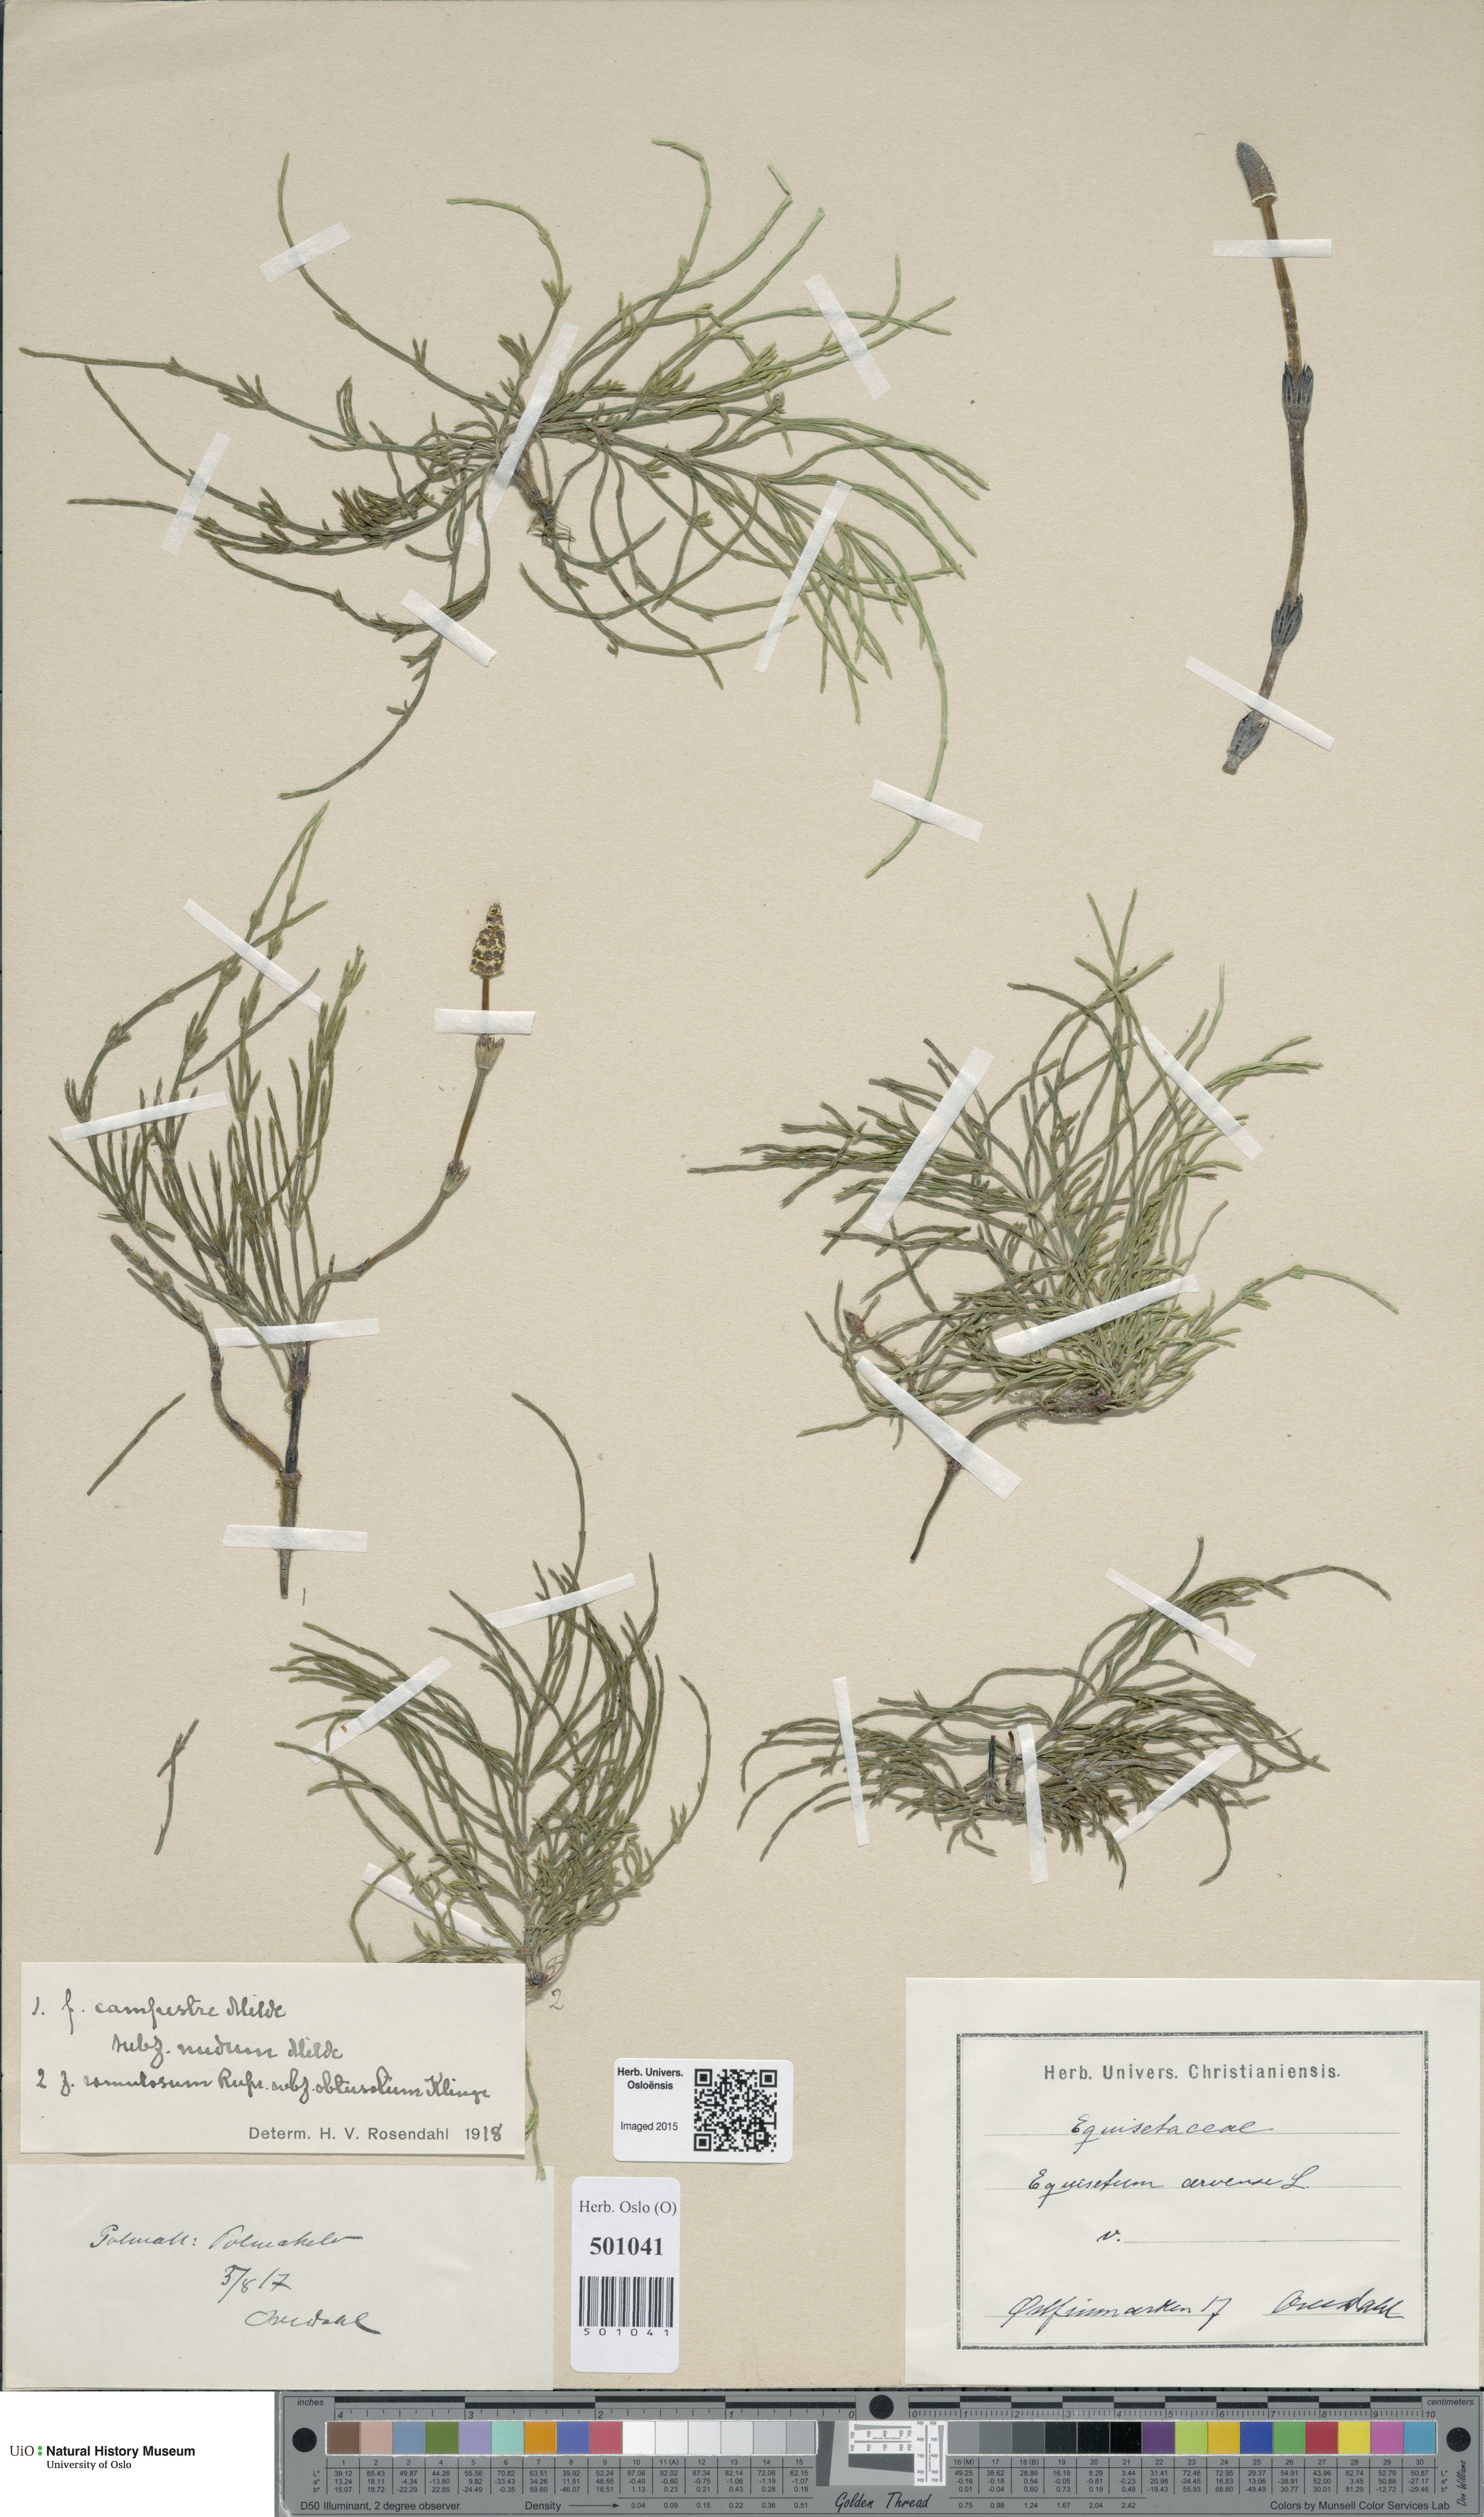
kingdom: Plantae
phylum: Tracheophyta
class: Polypodiopsida
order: Equisetales
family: Equisetaceae
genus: Equisetum
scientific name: Equisetum arvense
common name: Field horsetail
